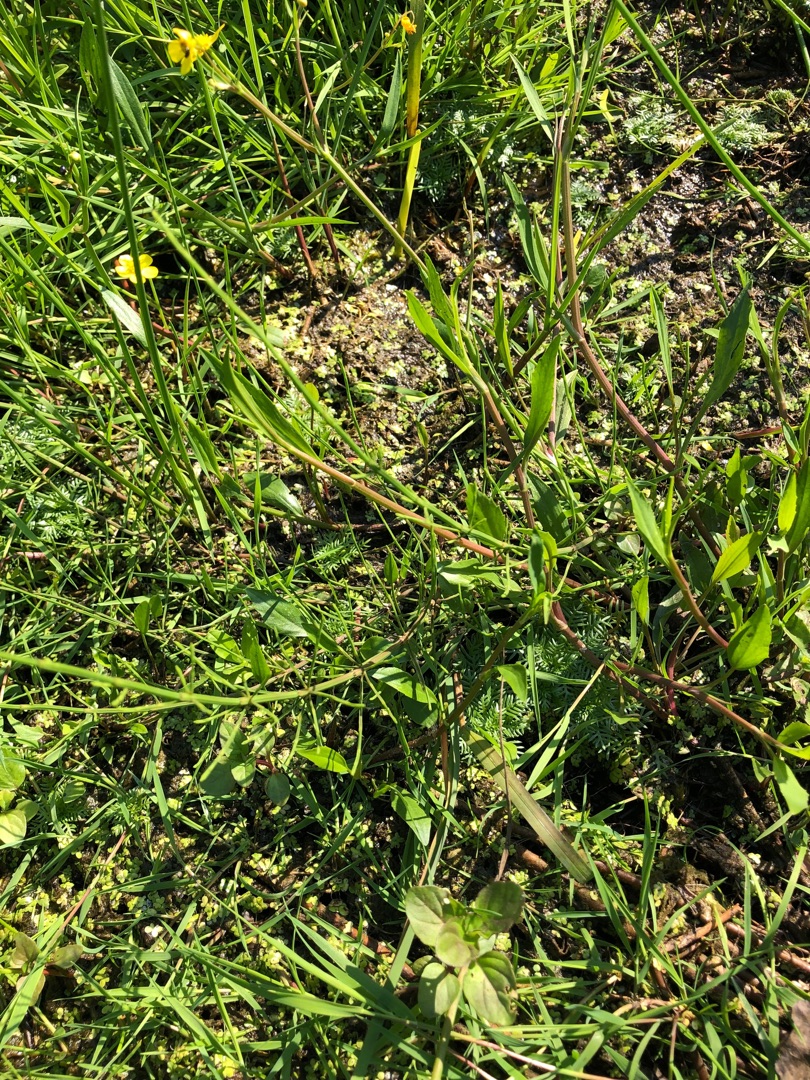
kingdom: Plantae
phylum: Tracheophyta
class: Magnoliopsida
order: Ranunculales
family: Ranunculaceae
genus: Ranunculus
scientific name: Ranunculus flammula
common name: Kær-ranunkel
